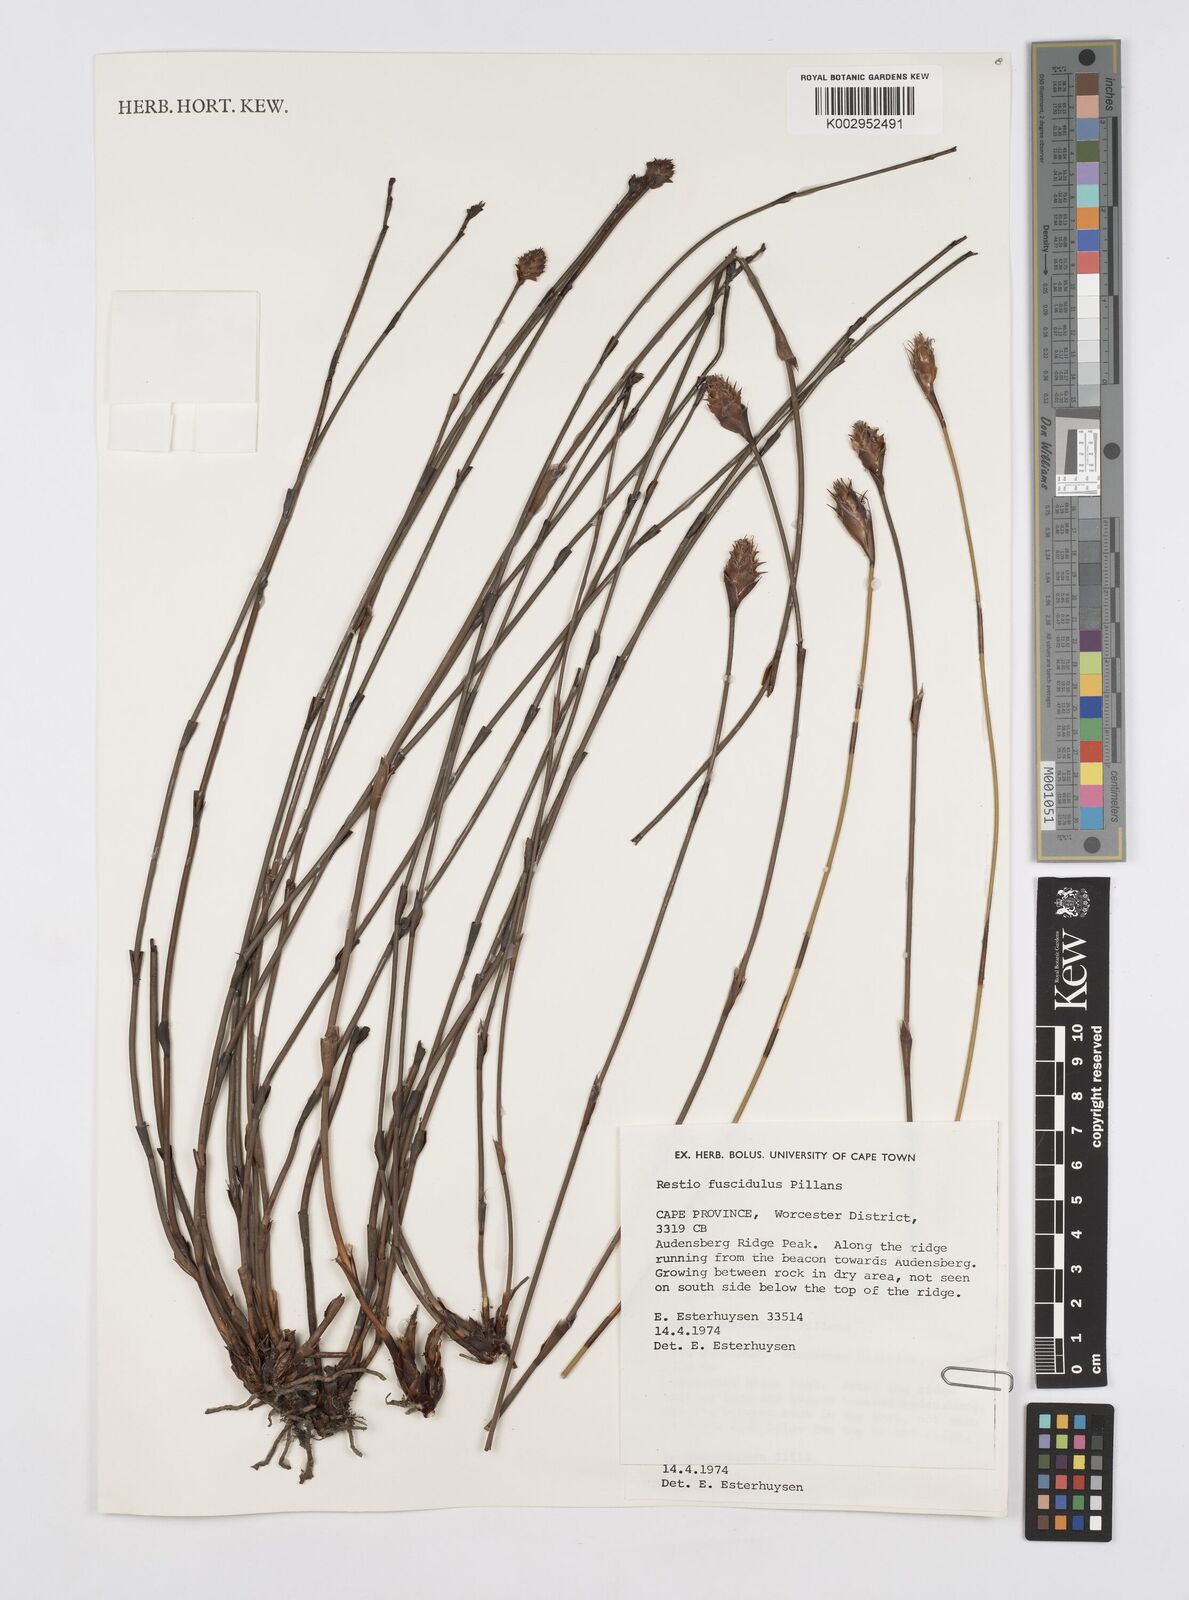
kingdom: Plantae
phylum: Tracheophyta
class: Liliopsida
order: Poales
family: Restionaceae
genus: Restio
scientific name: Restio fuscidulus
